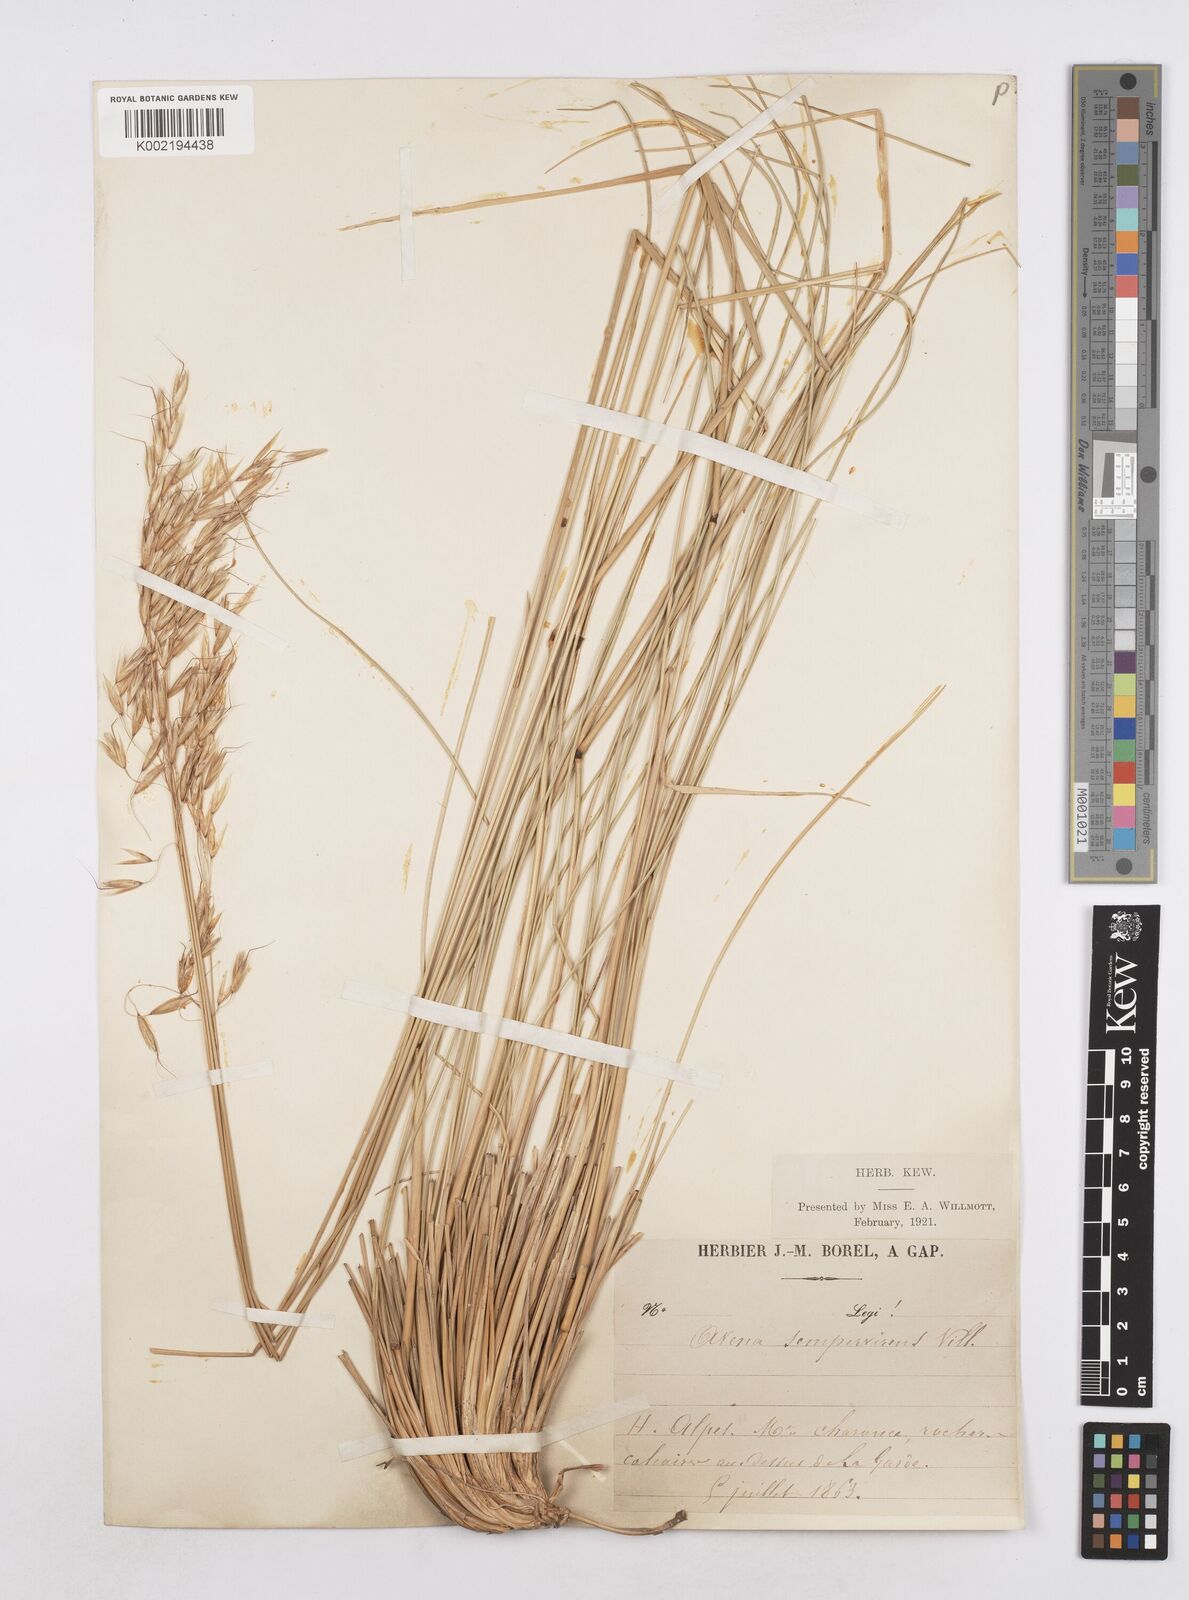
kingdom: Plantae
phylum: Tracheophyta
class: Liliopsida
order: Poales
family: Poaceae
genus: Helictotrichon
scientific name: Helictotrichon sempervirens
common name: Blue oat-grass
